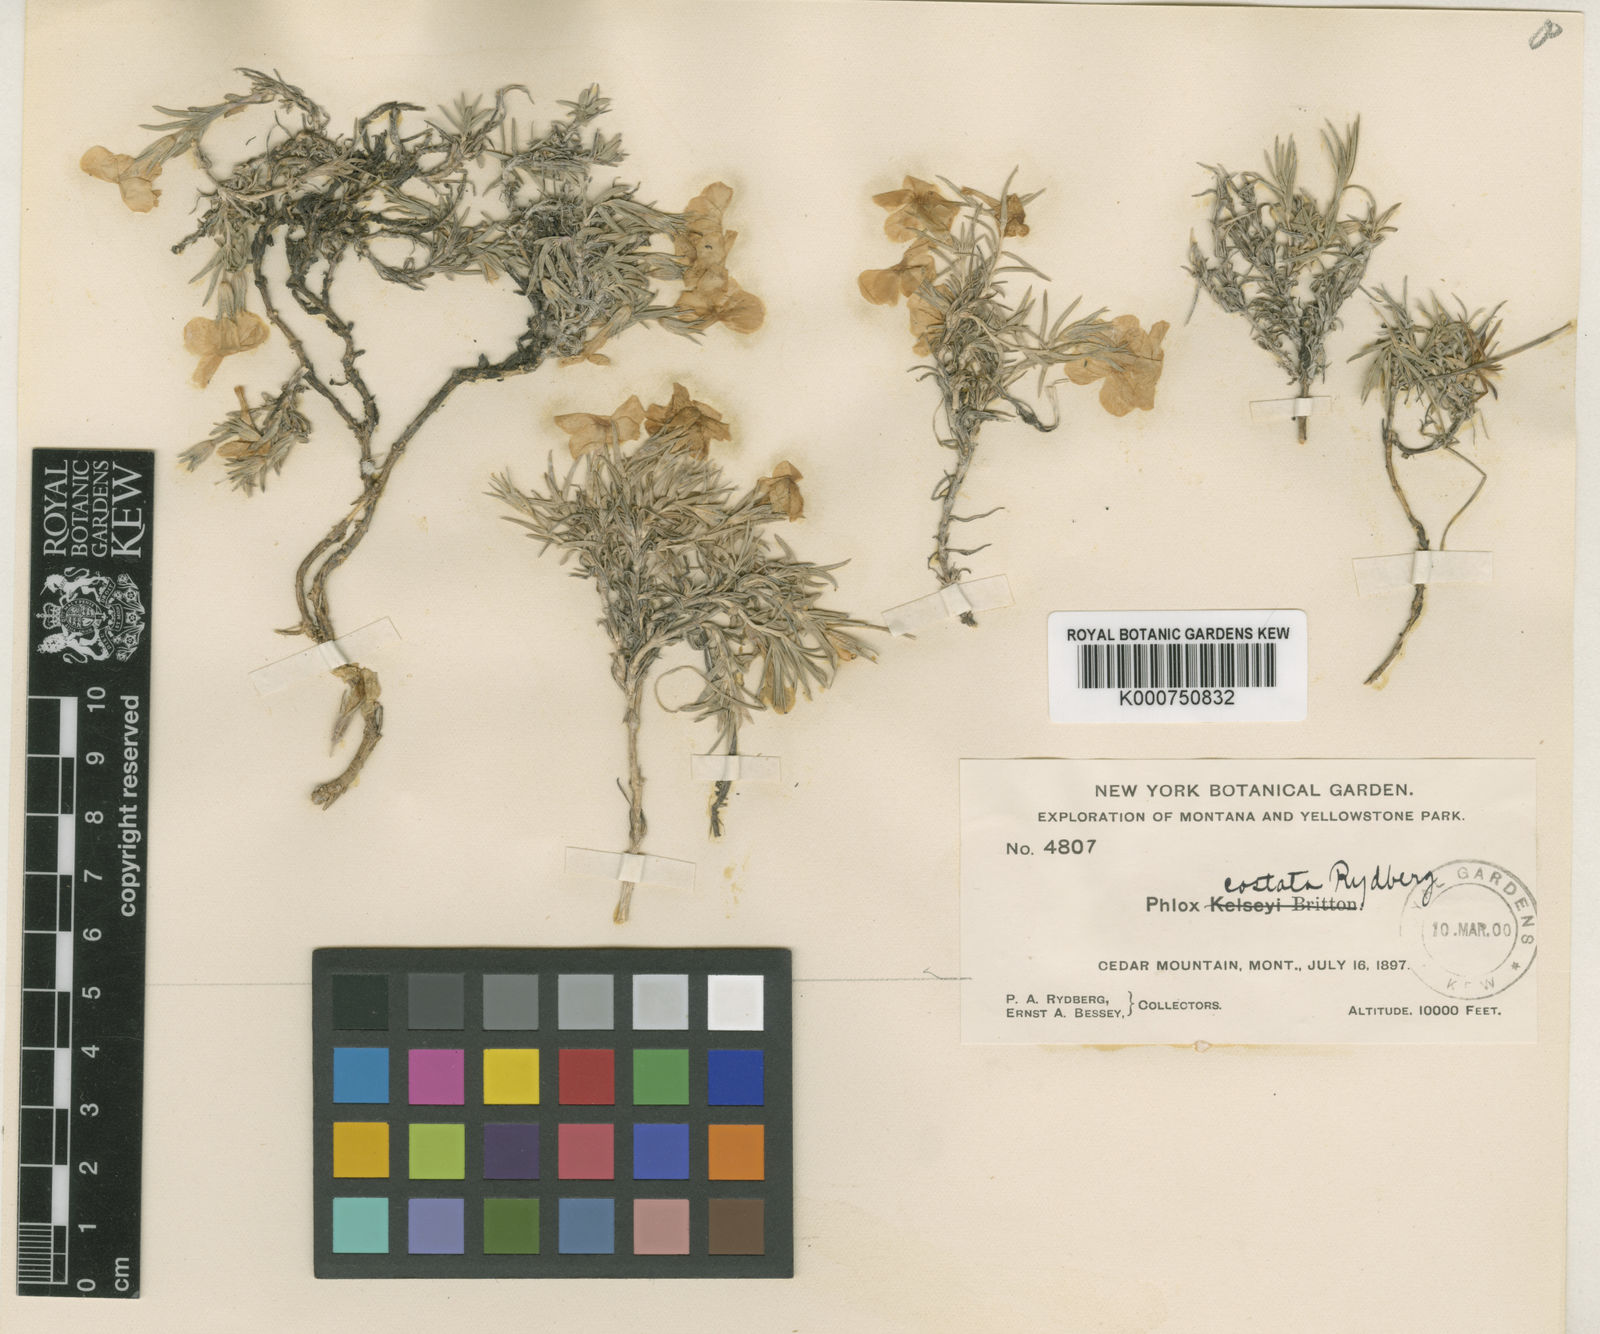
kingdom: Plantae
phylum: Tracheophyta
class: Magnoliopsida
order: Ericales
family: Polemoniaceae
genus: Phlox
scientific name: Phlox kelseyi
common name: Marsh phlox
